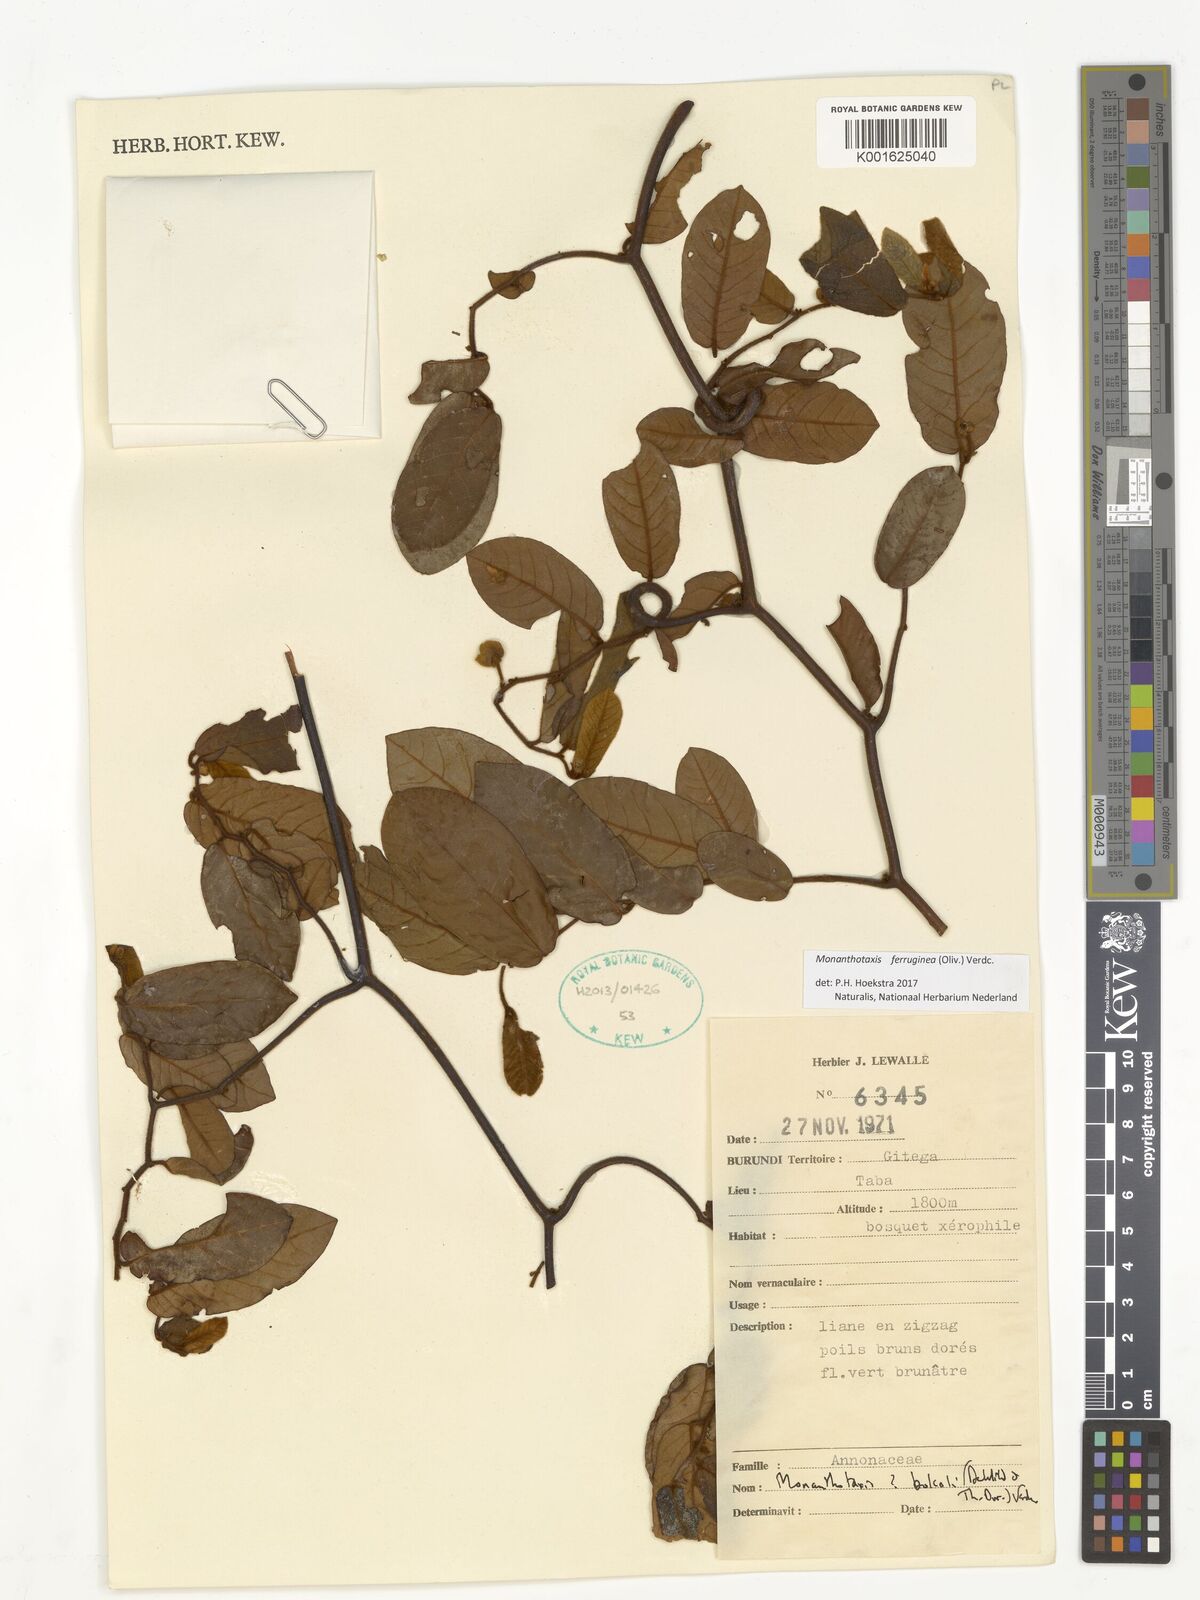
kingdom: Plantae
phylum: Tracheophyta
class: Magnoliopsida
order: Magnoliales
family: Annonaceae
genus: Monanthotaxis
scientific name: Monanthotaxis ferruginea
